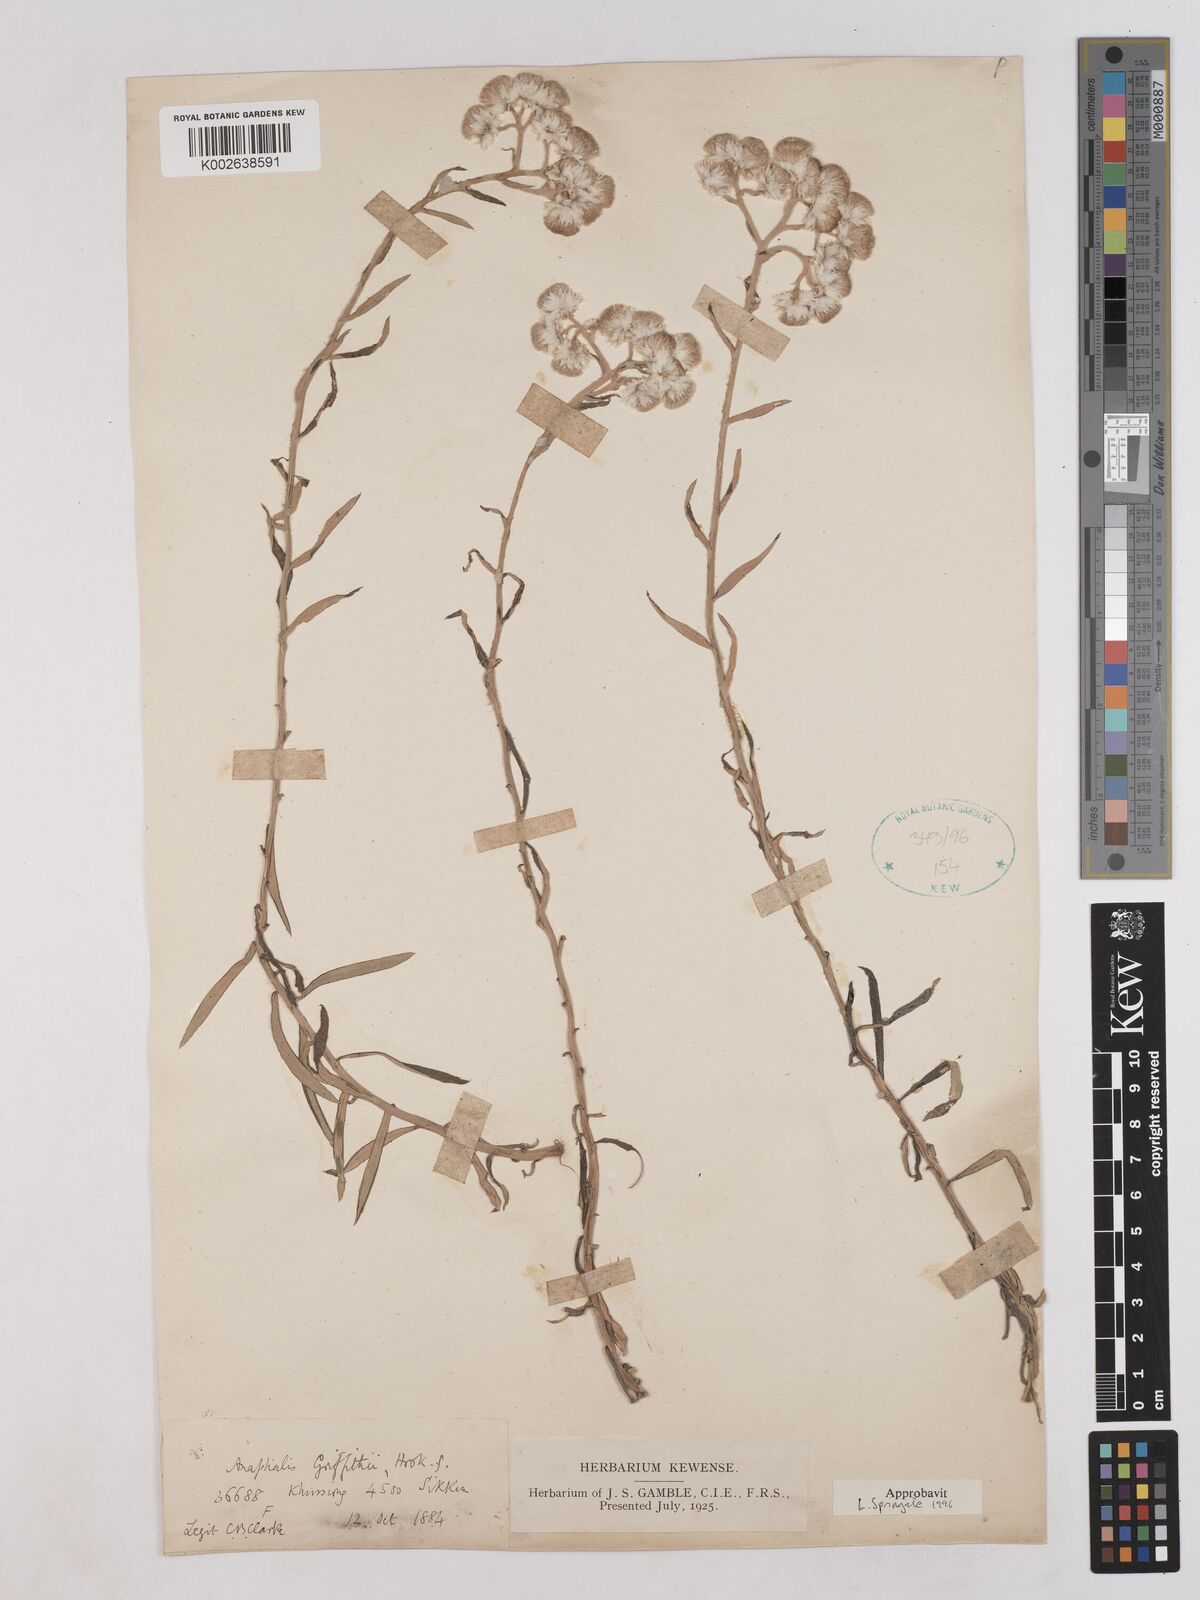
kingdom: Plantae
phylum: Tracheophyta
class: Magnoliopsida
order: Asterales
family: Asteraceae
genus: Anaphalis
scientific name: Anaphalis griffithii
